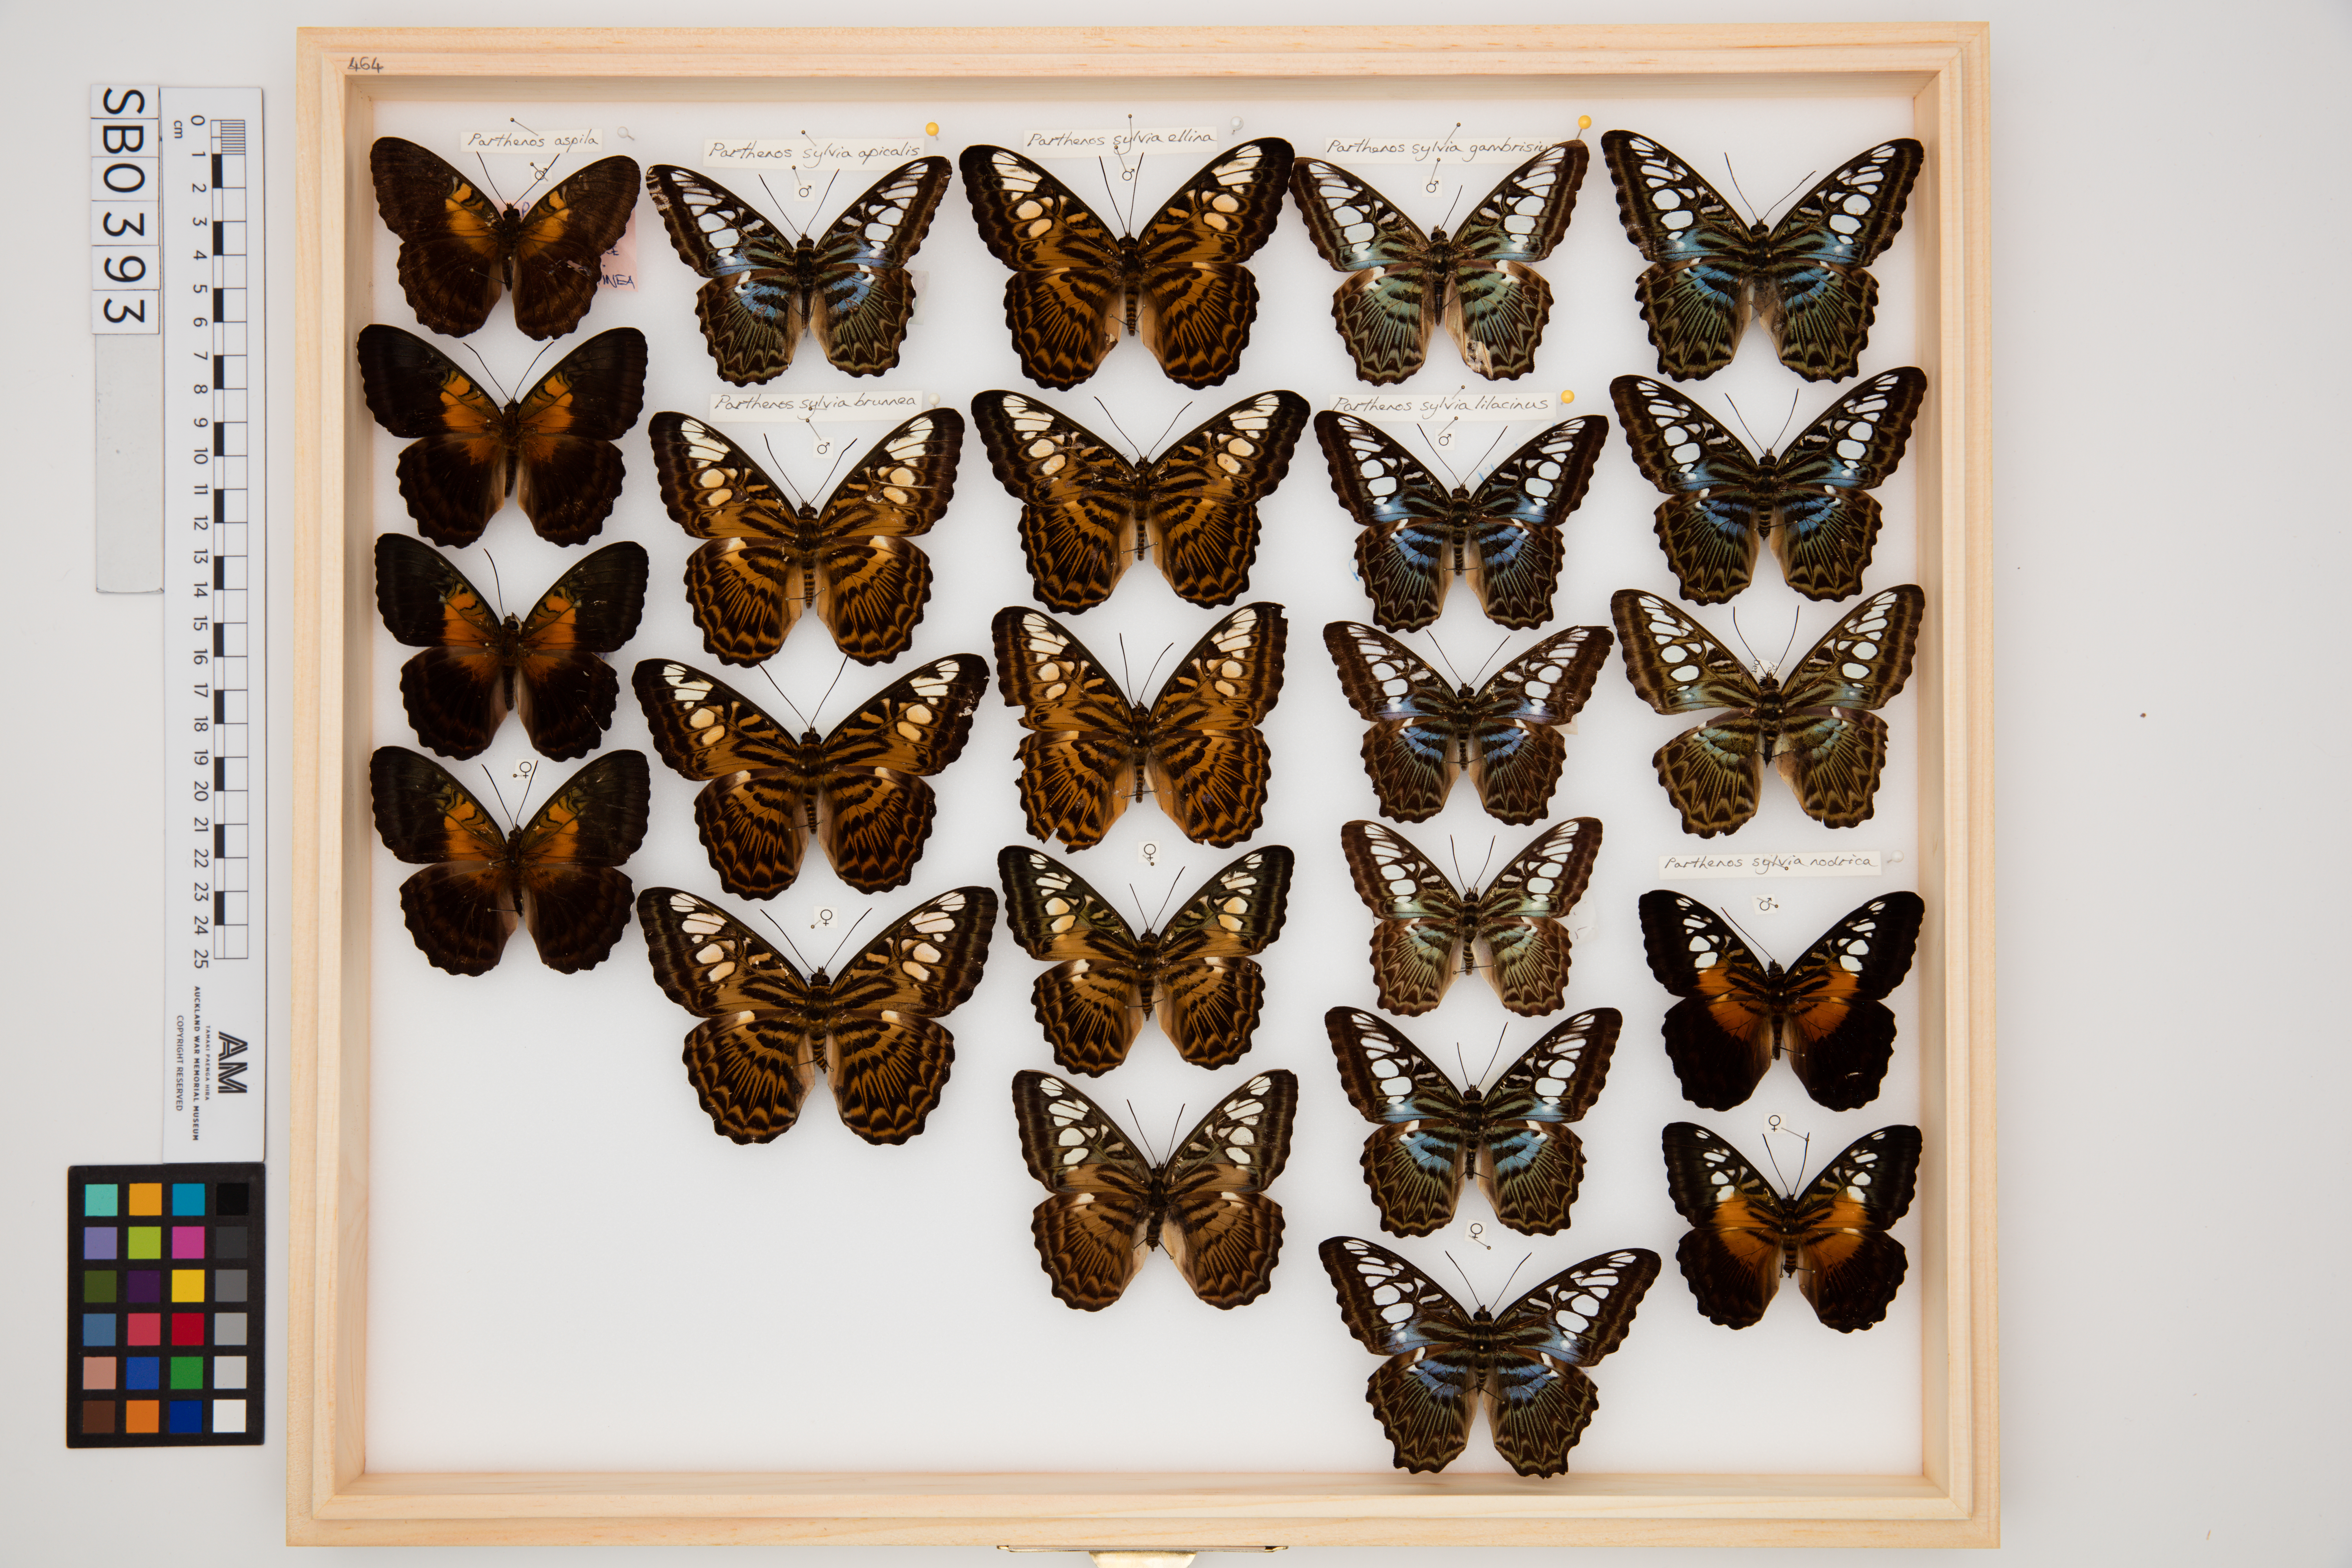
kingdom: Animalia
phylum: Arthropoda
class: Insecta
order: Lepidoptera
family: Nymphalidae
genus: Kallima
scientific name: Kallima sylvia
